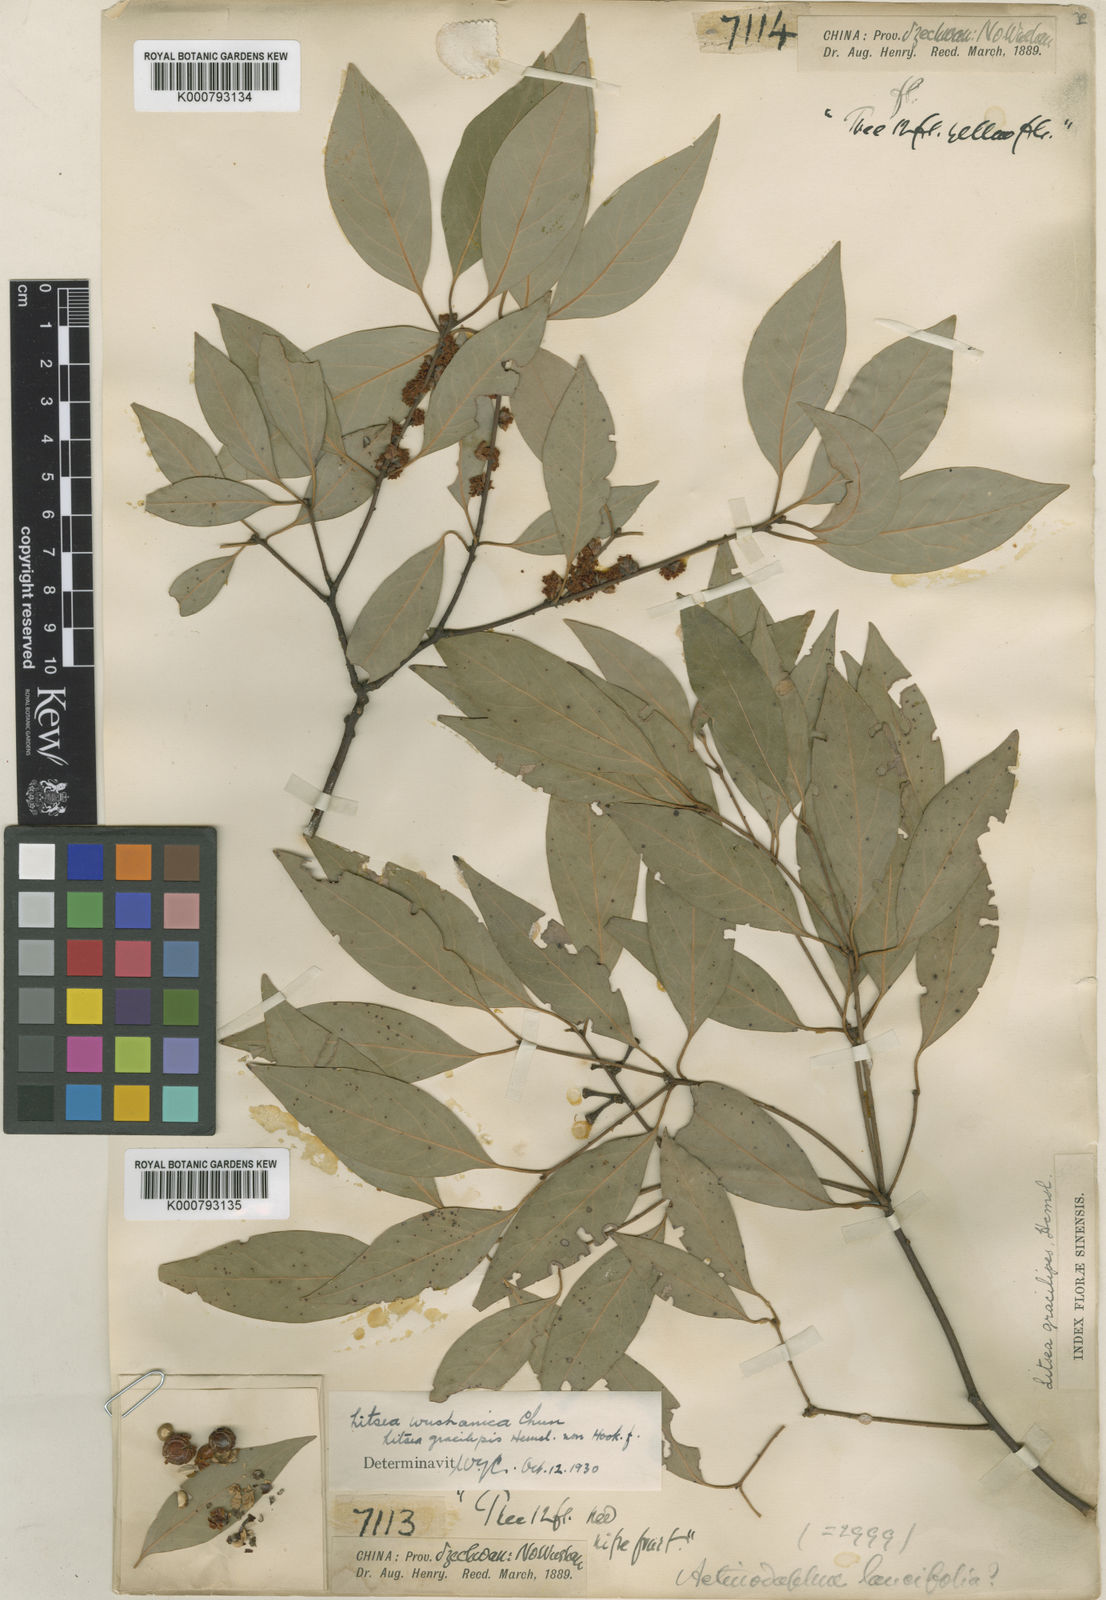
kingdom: Plantae
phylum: Tracheophyta
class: Magnoliopsida
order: Laurales
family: Lauraceae
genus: Neolitsea
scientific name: Neolitsea wushanica
